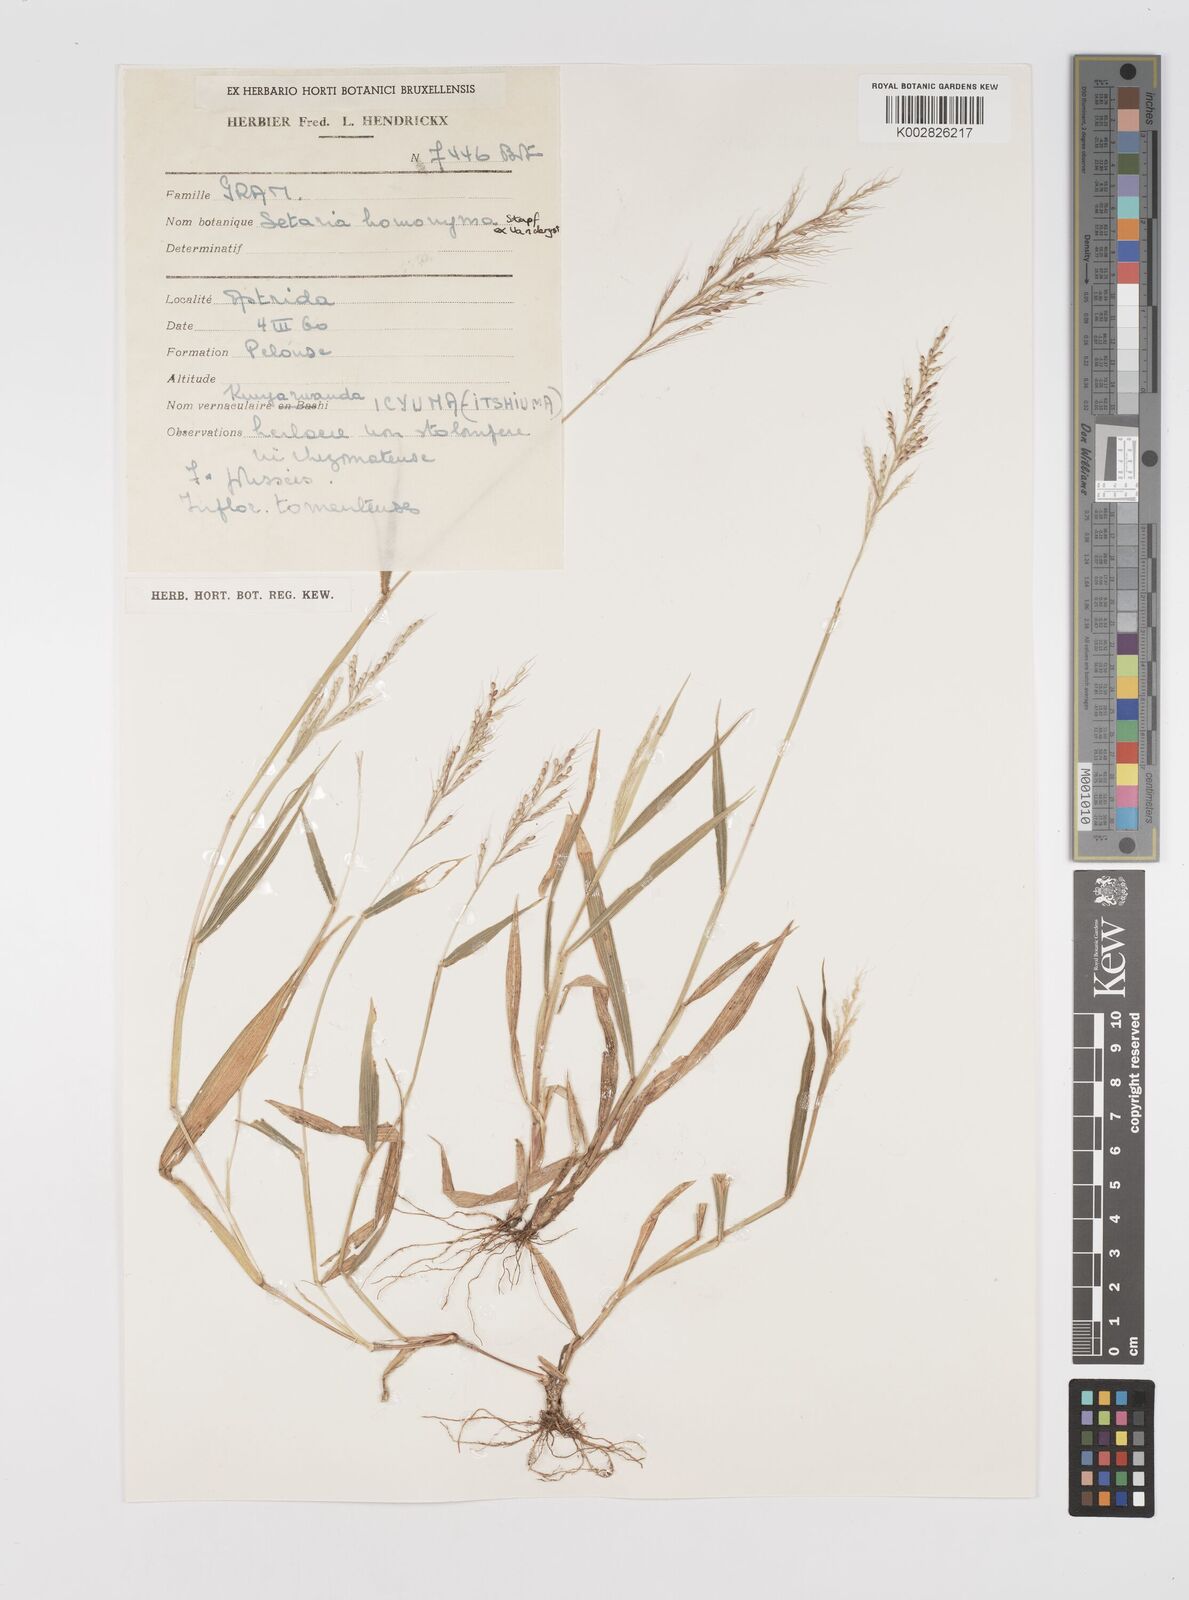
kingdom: Plantae
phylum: Tracheophyta
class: Liliopsida
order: Poales
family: Poaceae
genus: Setaria
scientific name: Setaria homonyma
